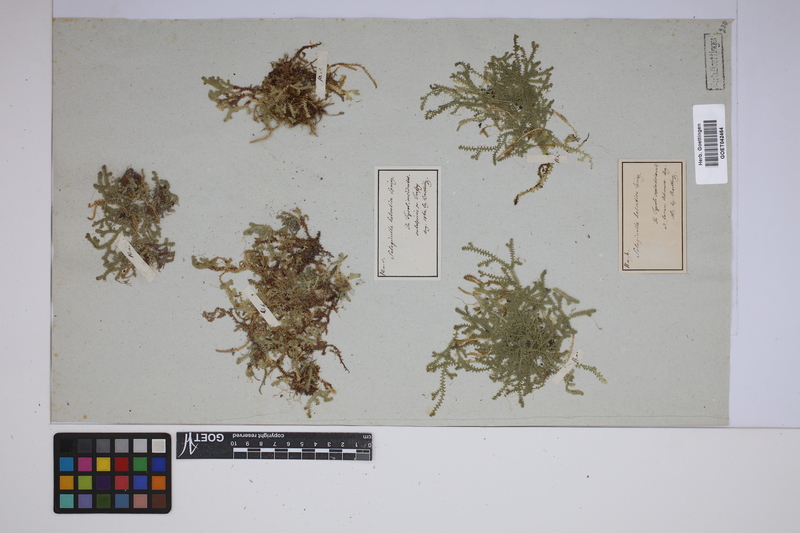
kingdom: Plantae
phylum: Tracheophyta
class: Lycopodiopsida
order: Selaginellales
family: Selaginellaceae
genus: Selaginella
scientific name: Selaginella helvetica
